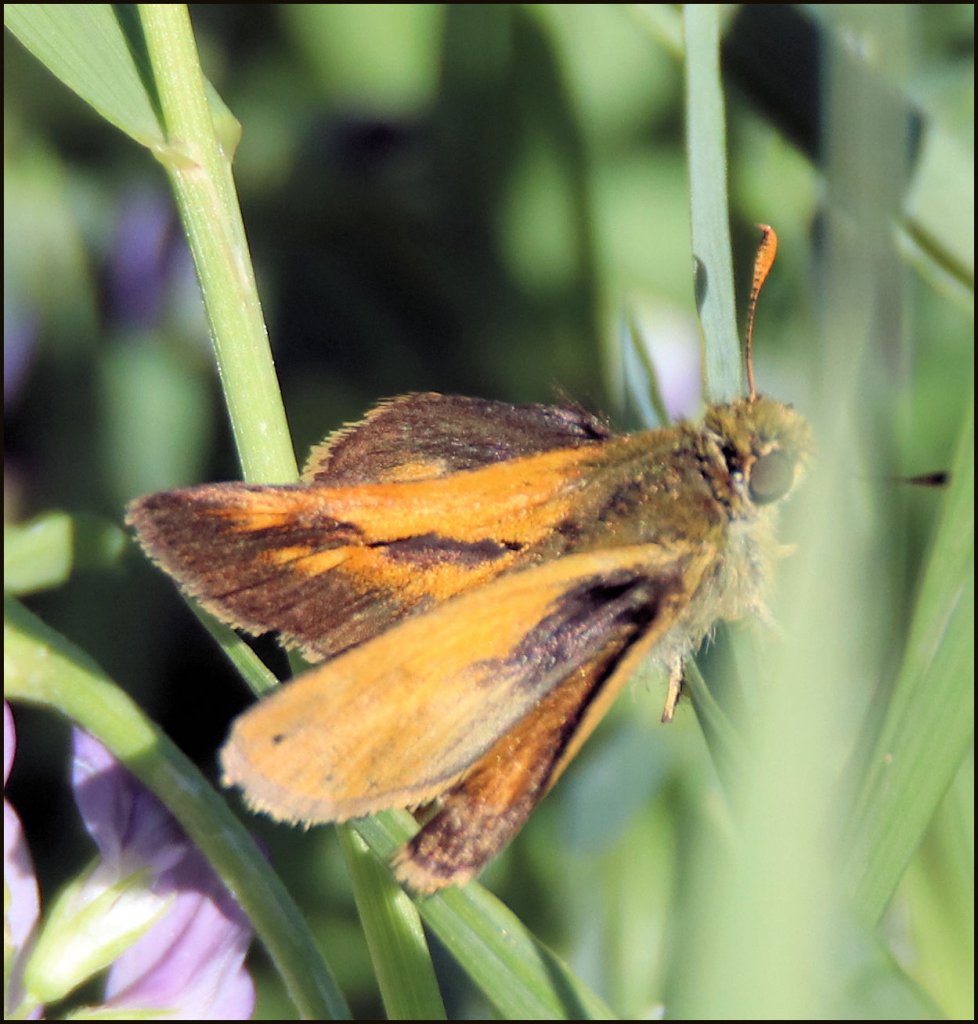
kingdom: Animalia
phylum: Arthropoda
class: Insecta
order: Lepidoptera
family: Hesperiidae
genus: Polites
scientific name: Polites themistocles
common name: Tawny-edged Skipper
